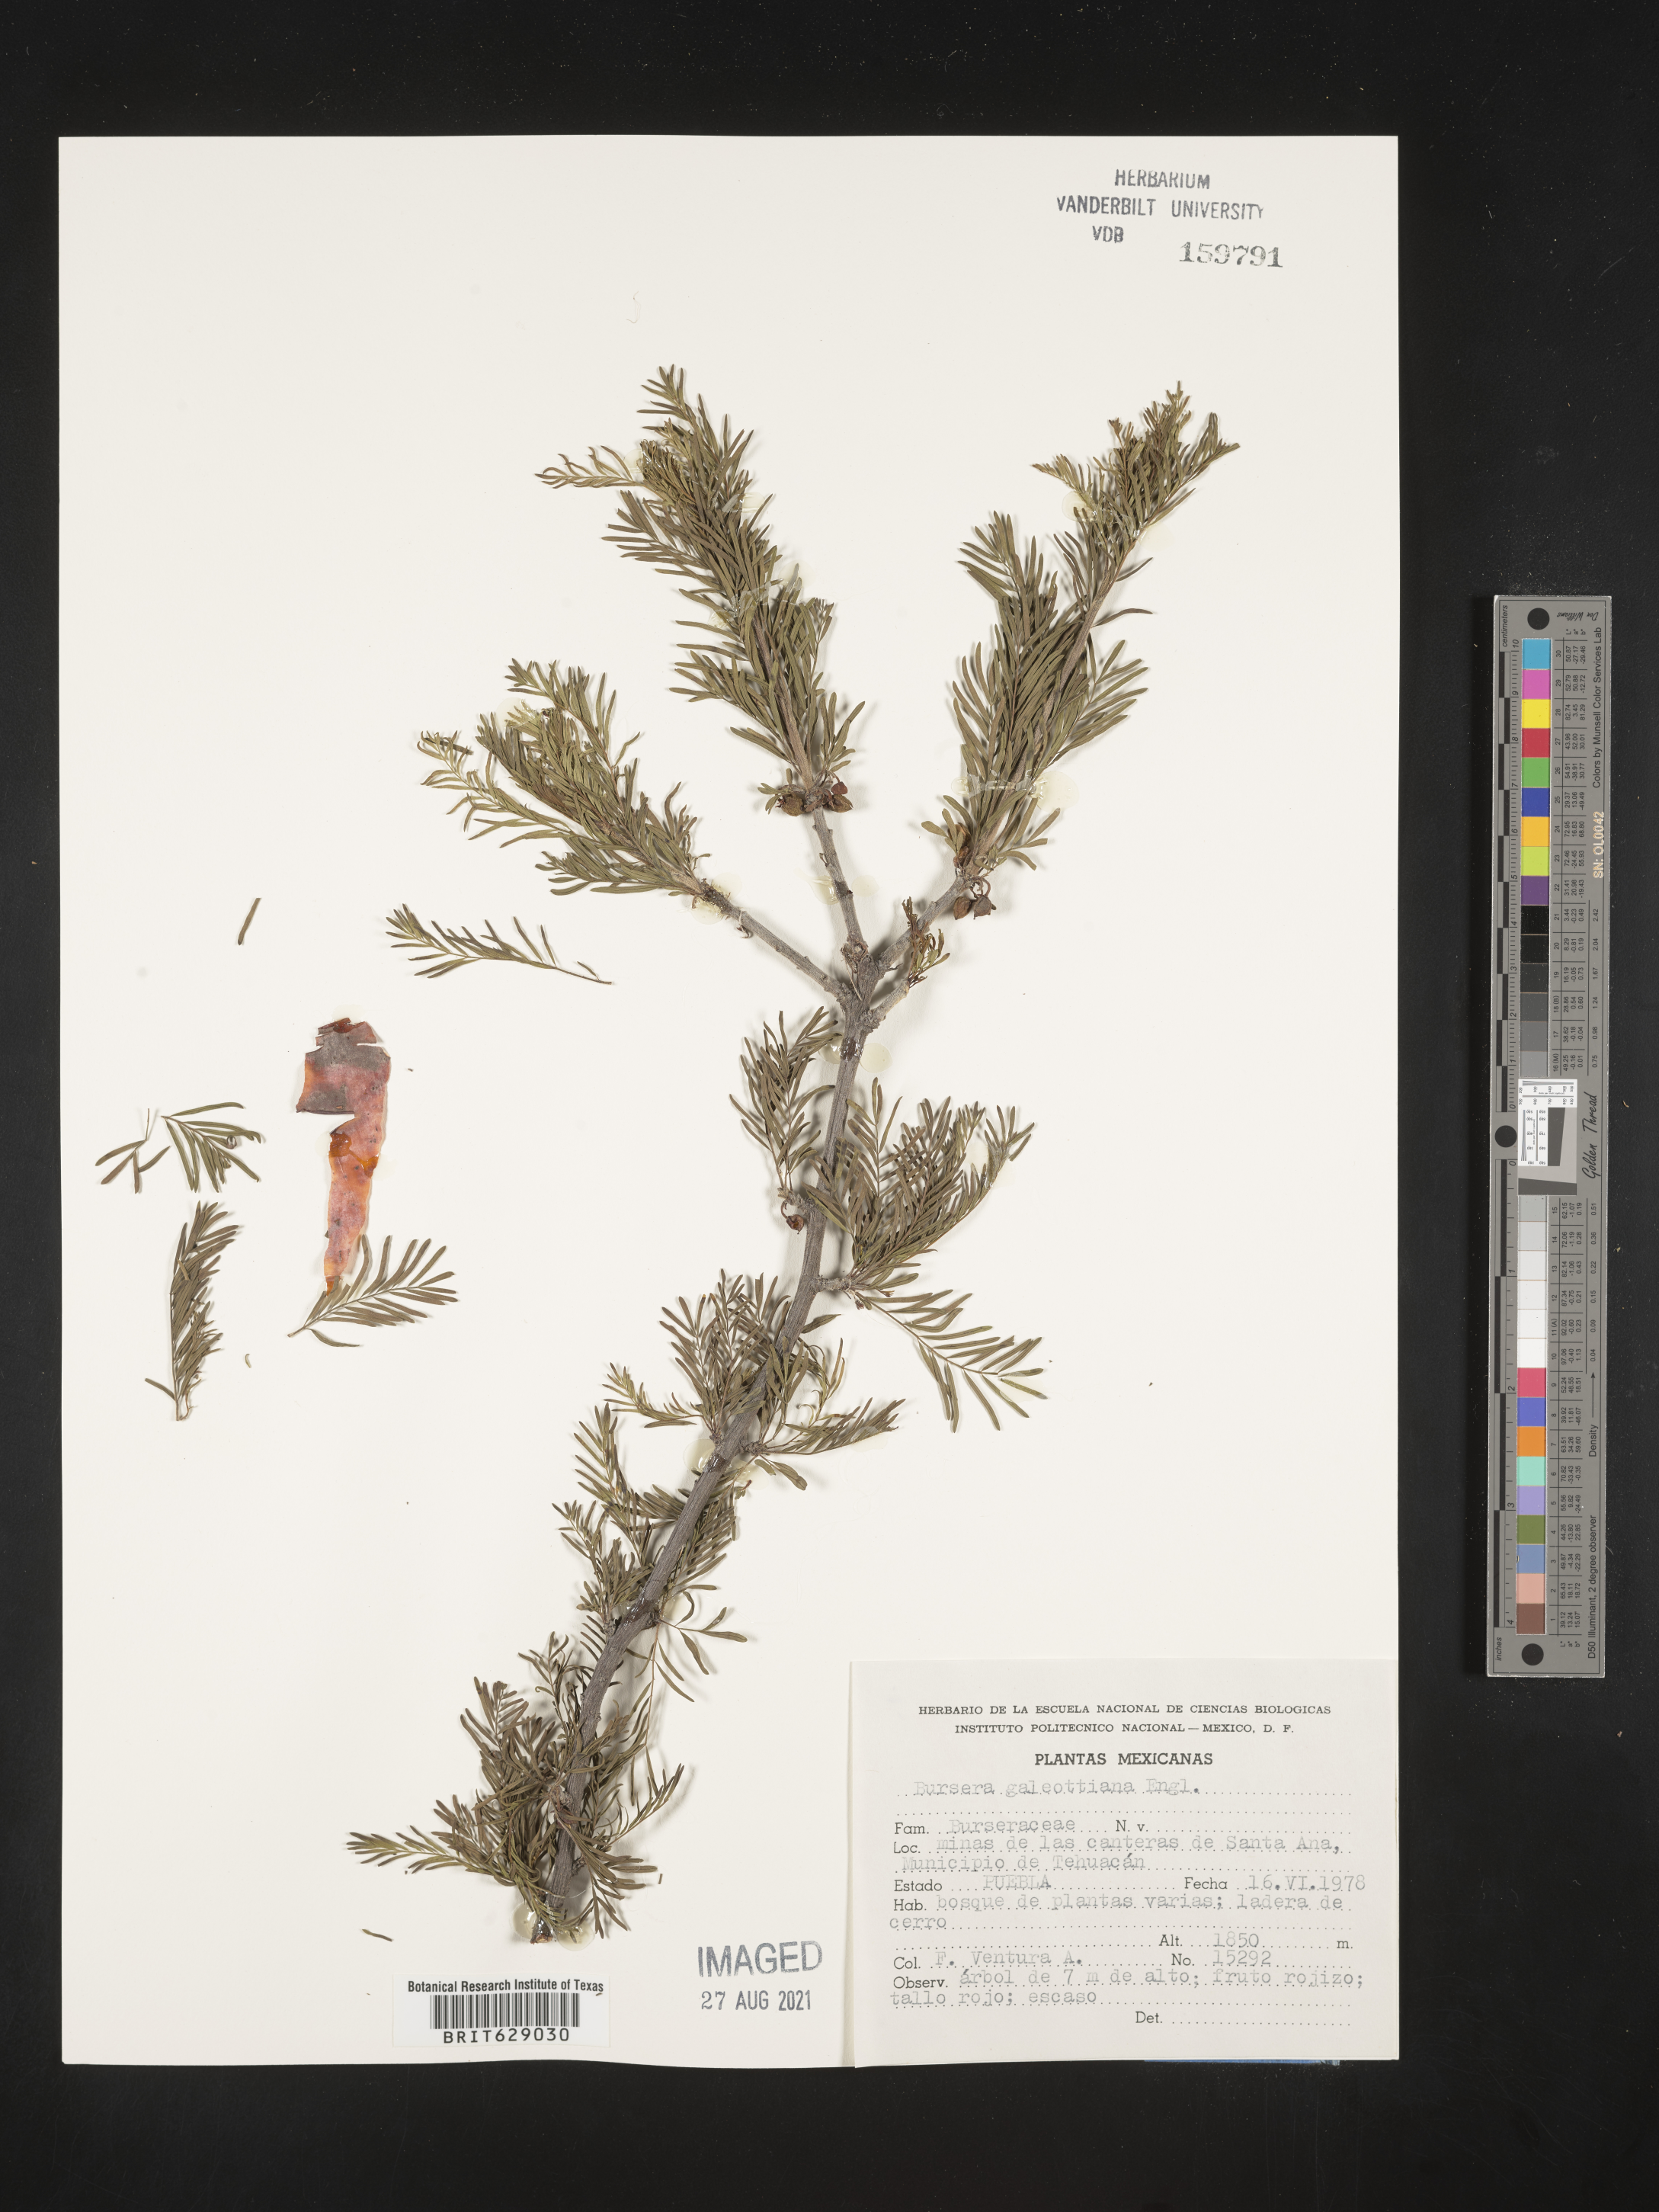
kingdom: Plantae
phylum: Tracheophyta
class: Magnoliopsida
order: Sapindales
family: Burseraceae
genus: Bursera
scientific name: Bursera
